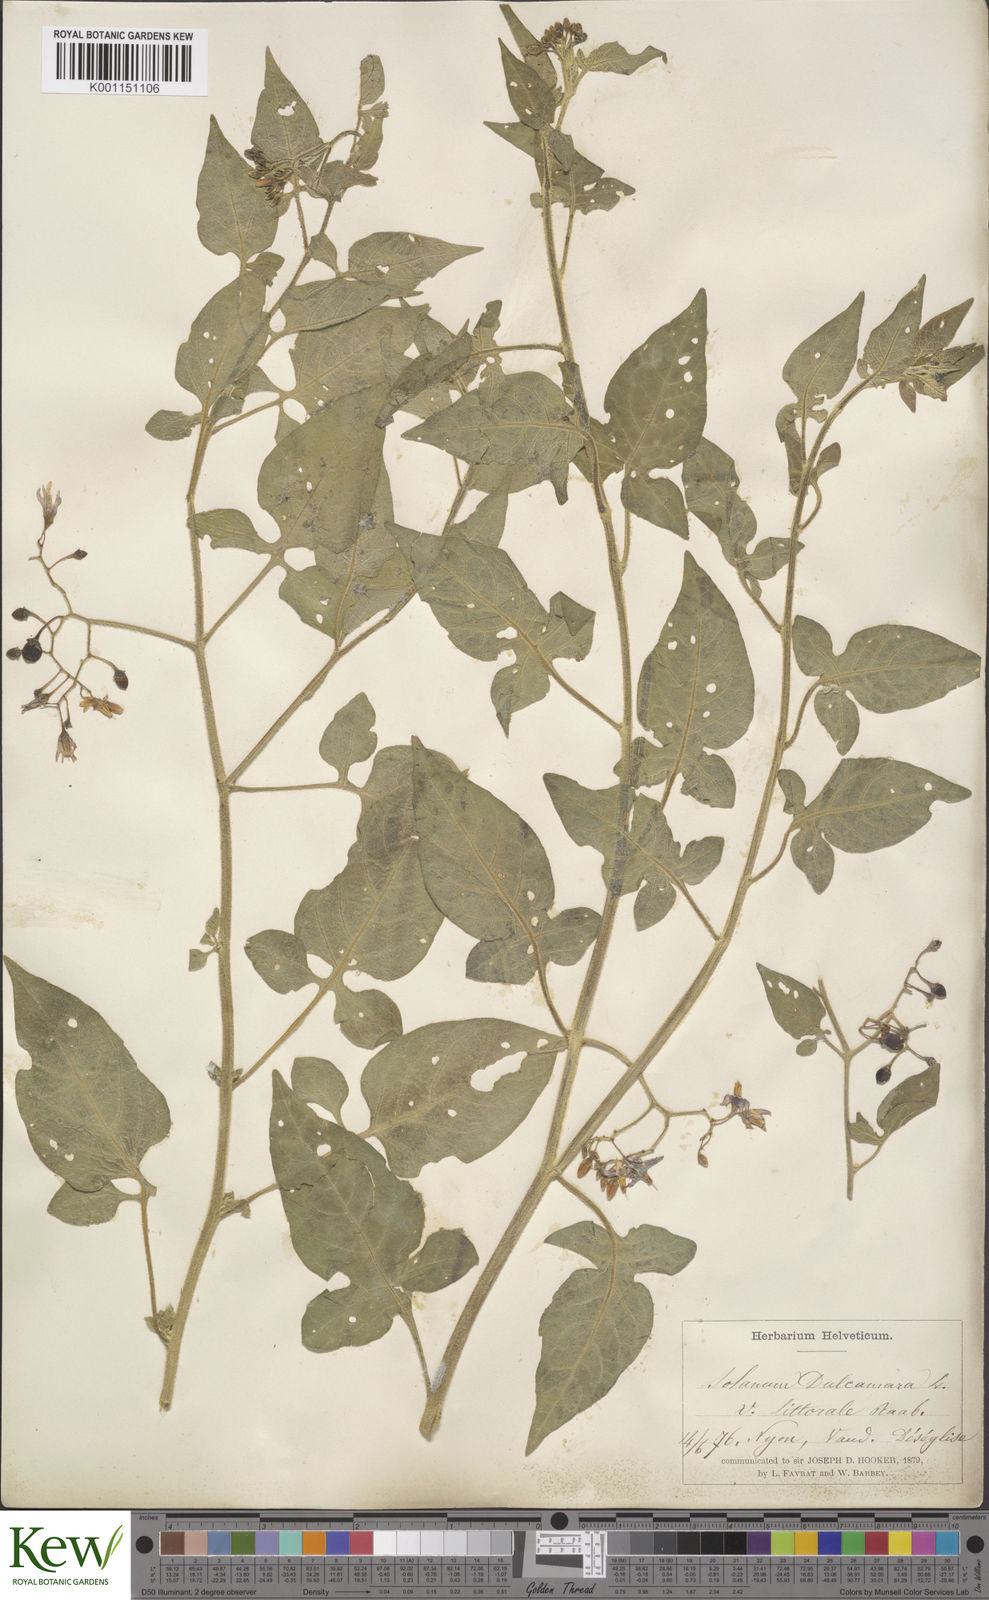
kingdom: Plantae
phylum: Tracheophyta
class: Magnoliopsida
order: Solanales
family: Solanaceae
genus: Solanum
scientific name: Solanum dulcamara
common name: Climbing nightshade
